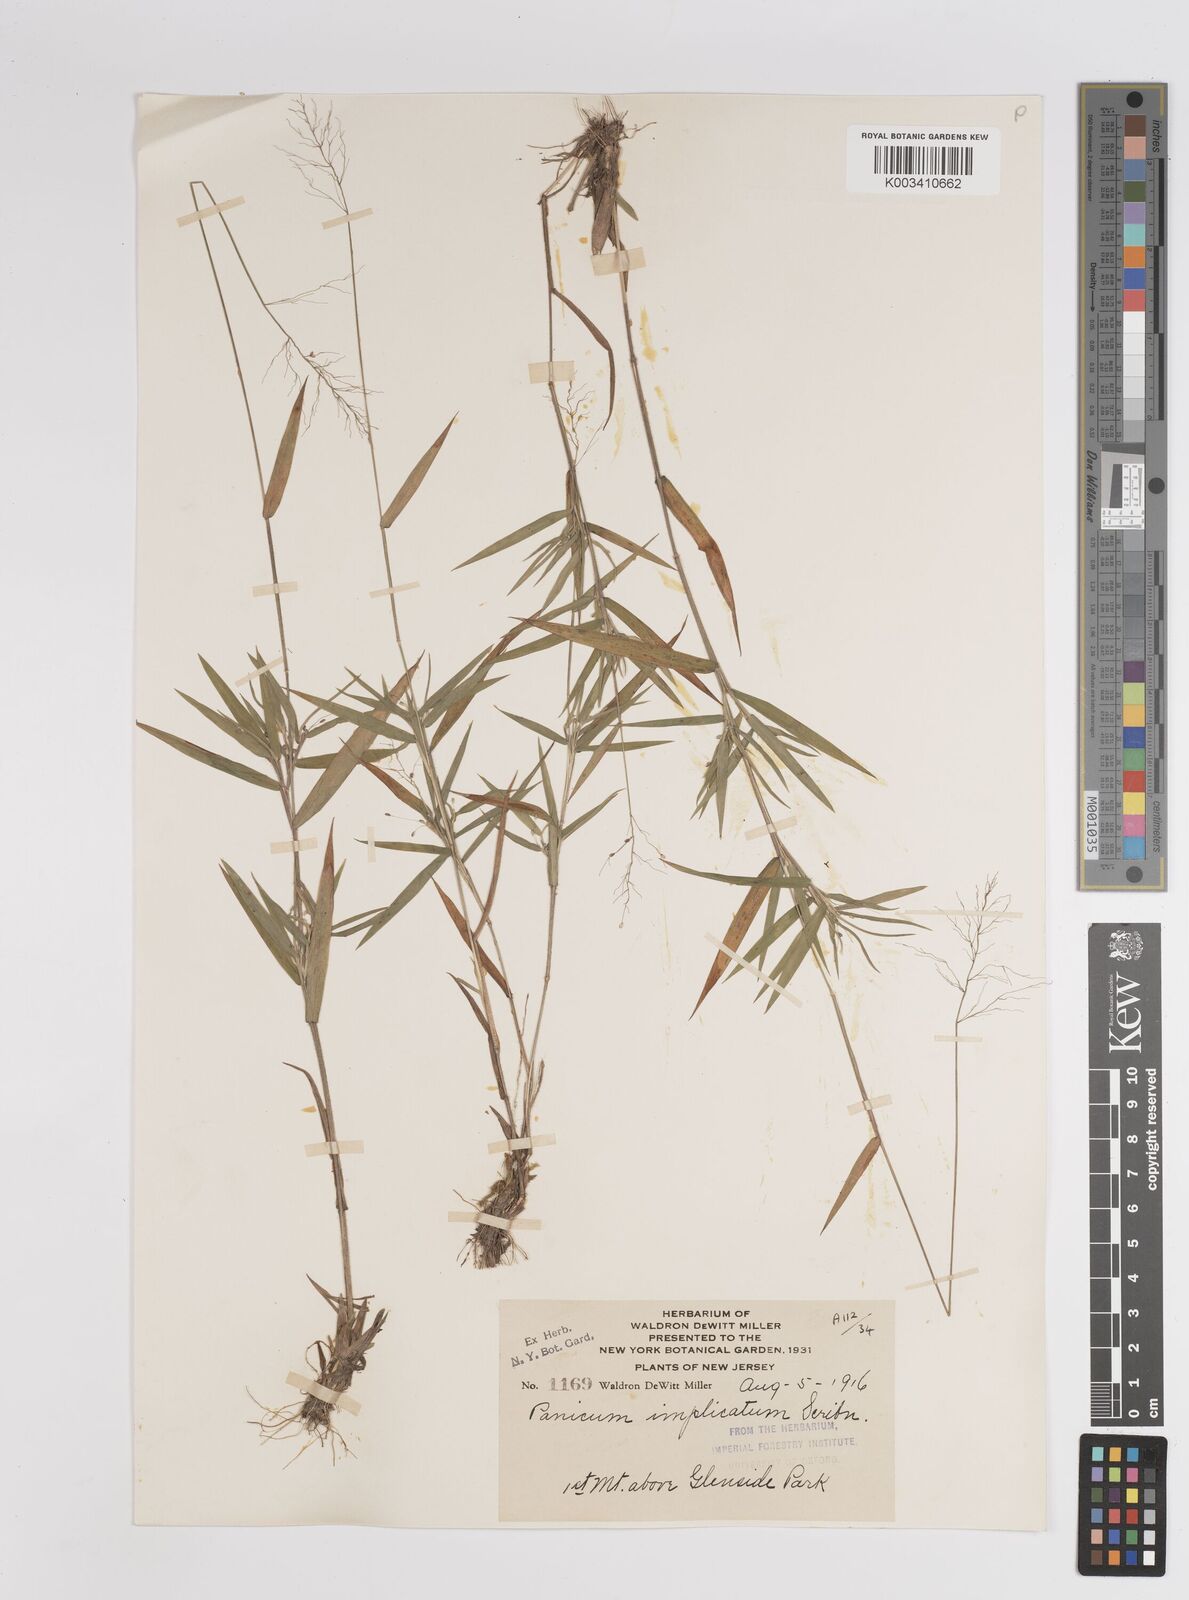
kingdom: Plantae
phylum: Tracheophyta
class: Liliopsida
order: Poales
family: Poaceae
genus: Dichanthelium
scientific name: Dichanthelium implicatum
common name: Slender-stemmed panicgrass
